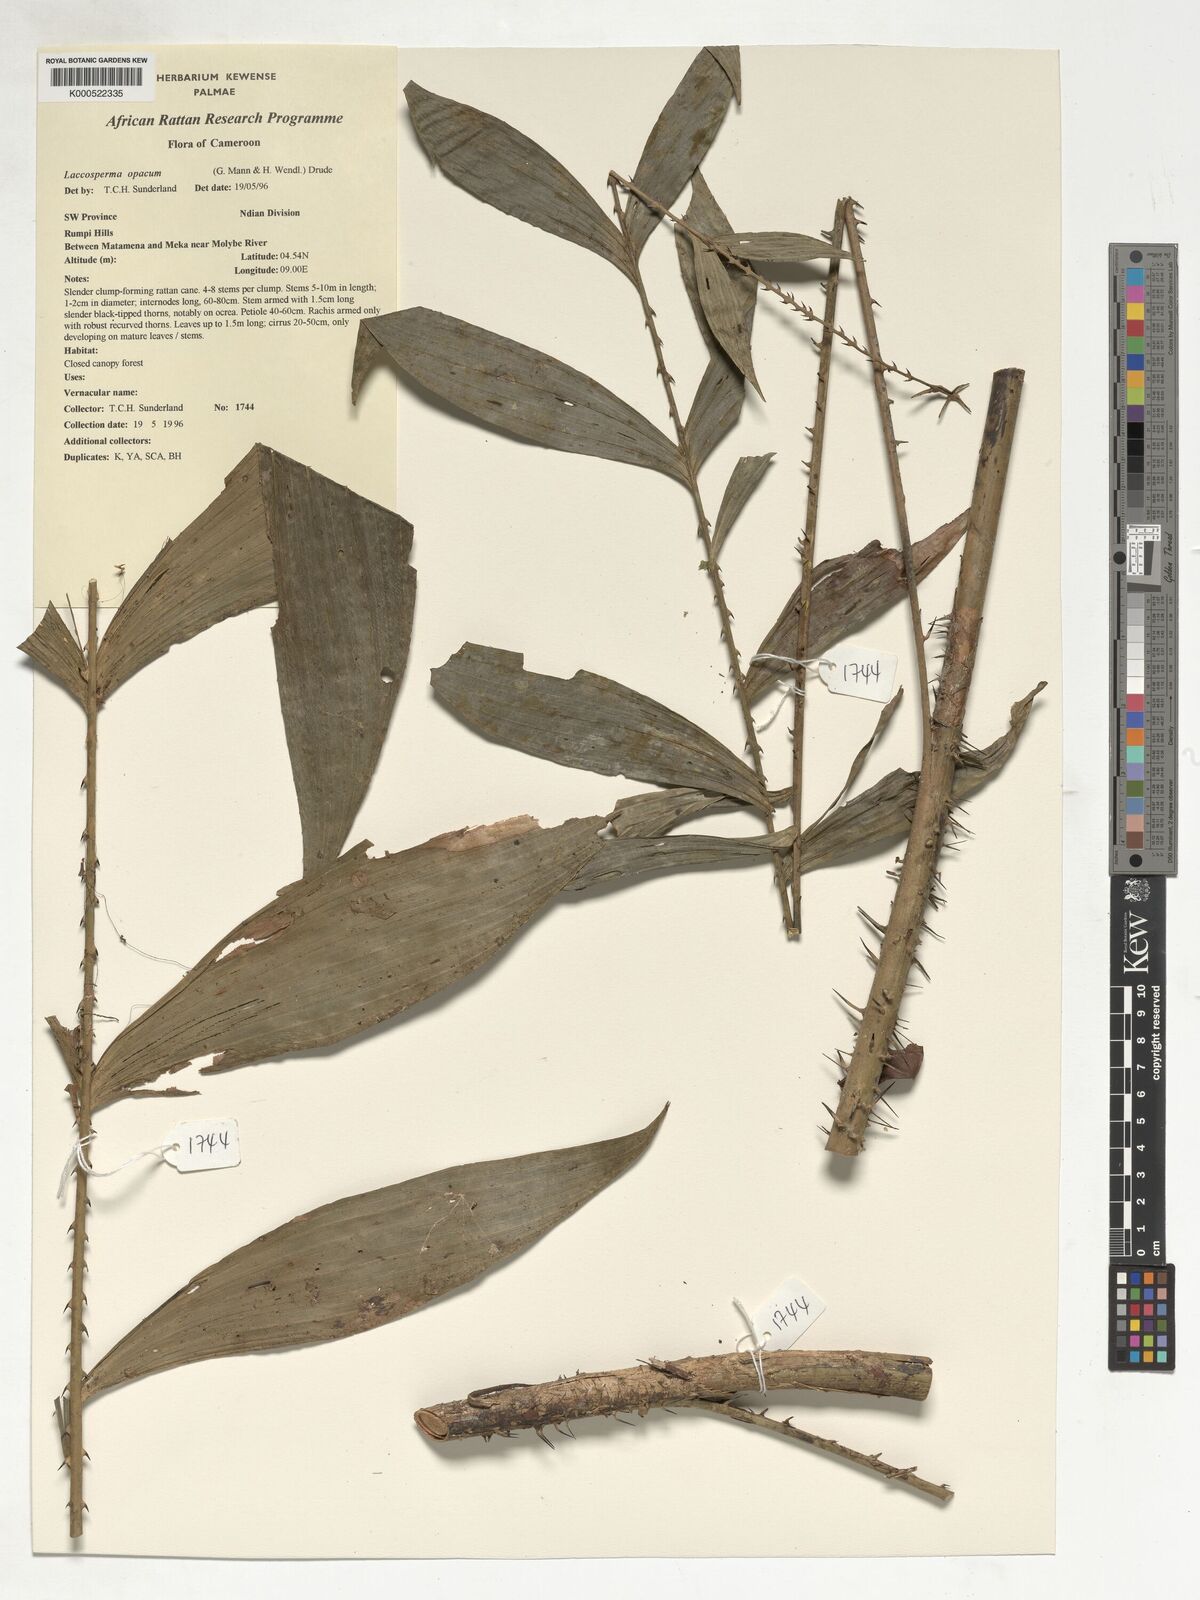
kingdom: Plantae
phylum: Tracheophyta
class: Liliopsida
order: Arecales
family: Arecaceae
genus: Laccosperma
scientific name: Laccosperma opacum
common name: Rattan
